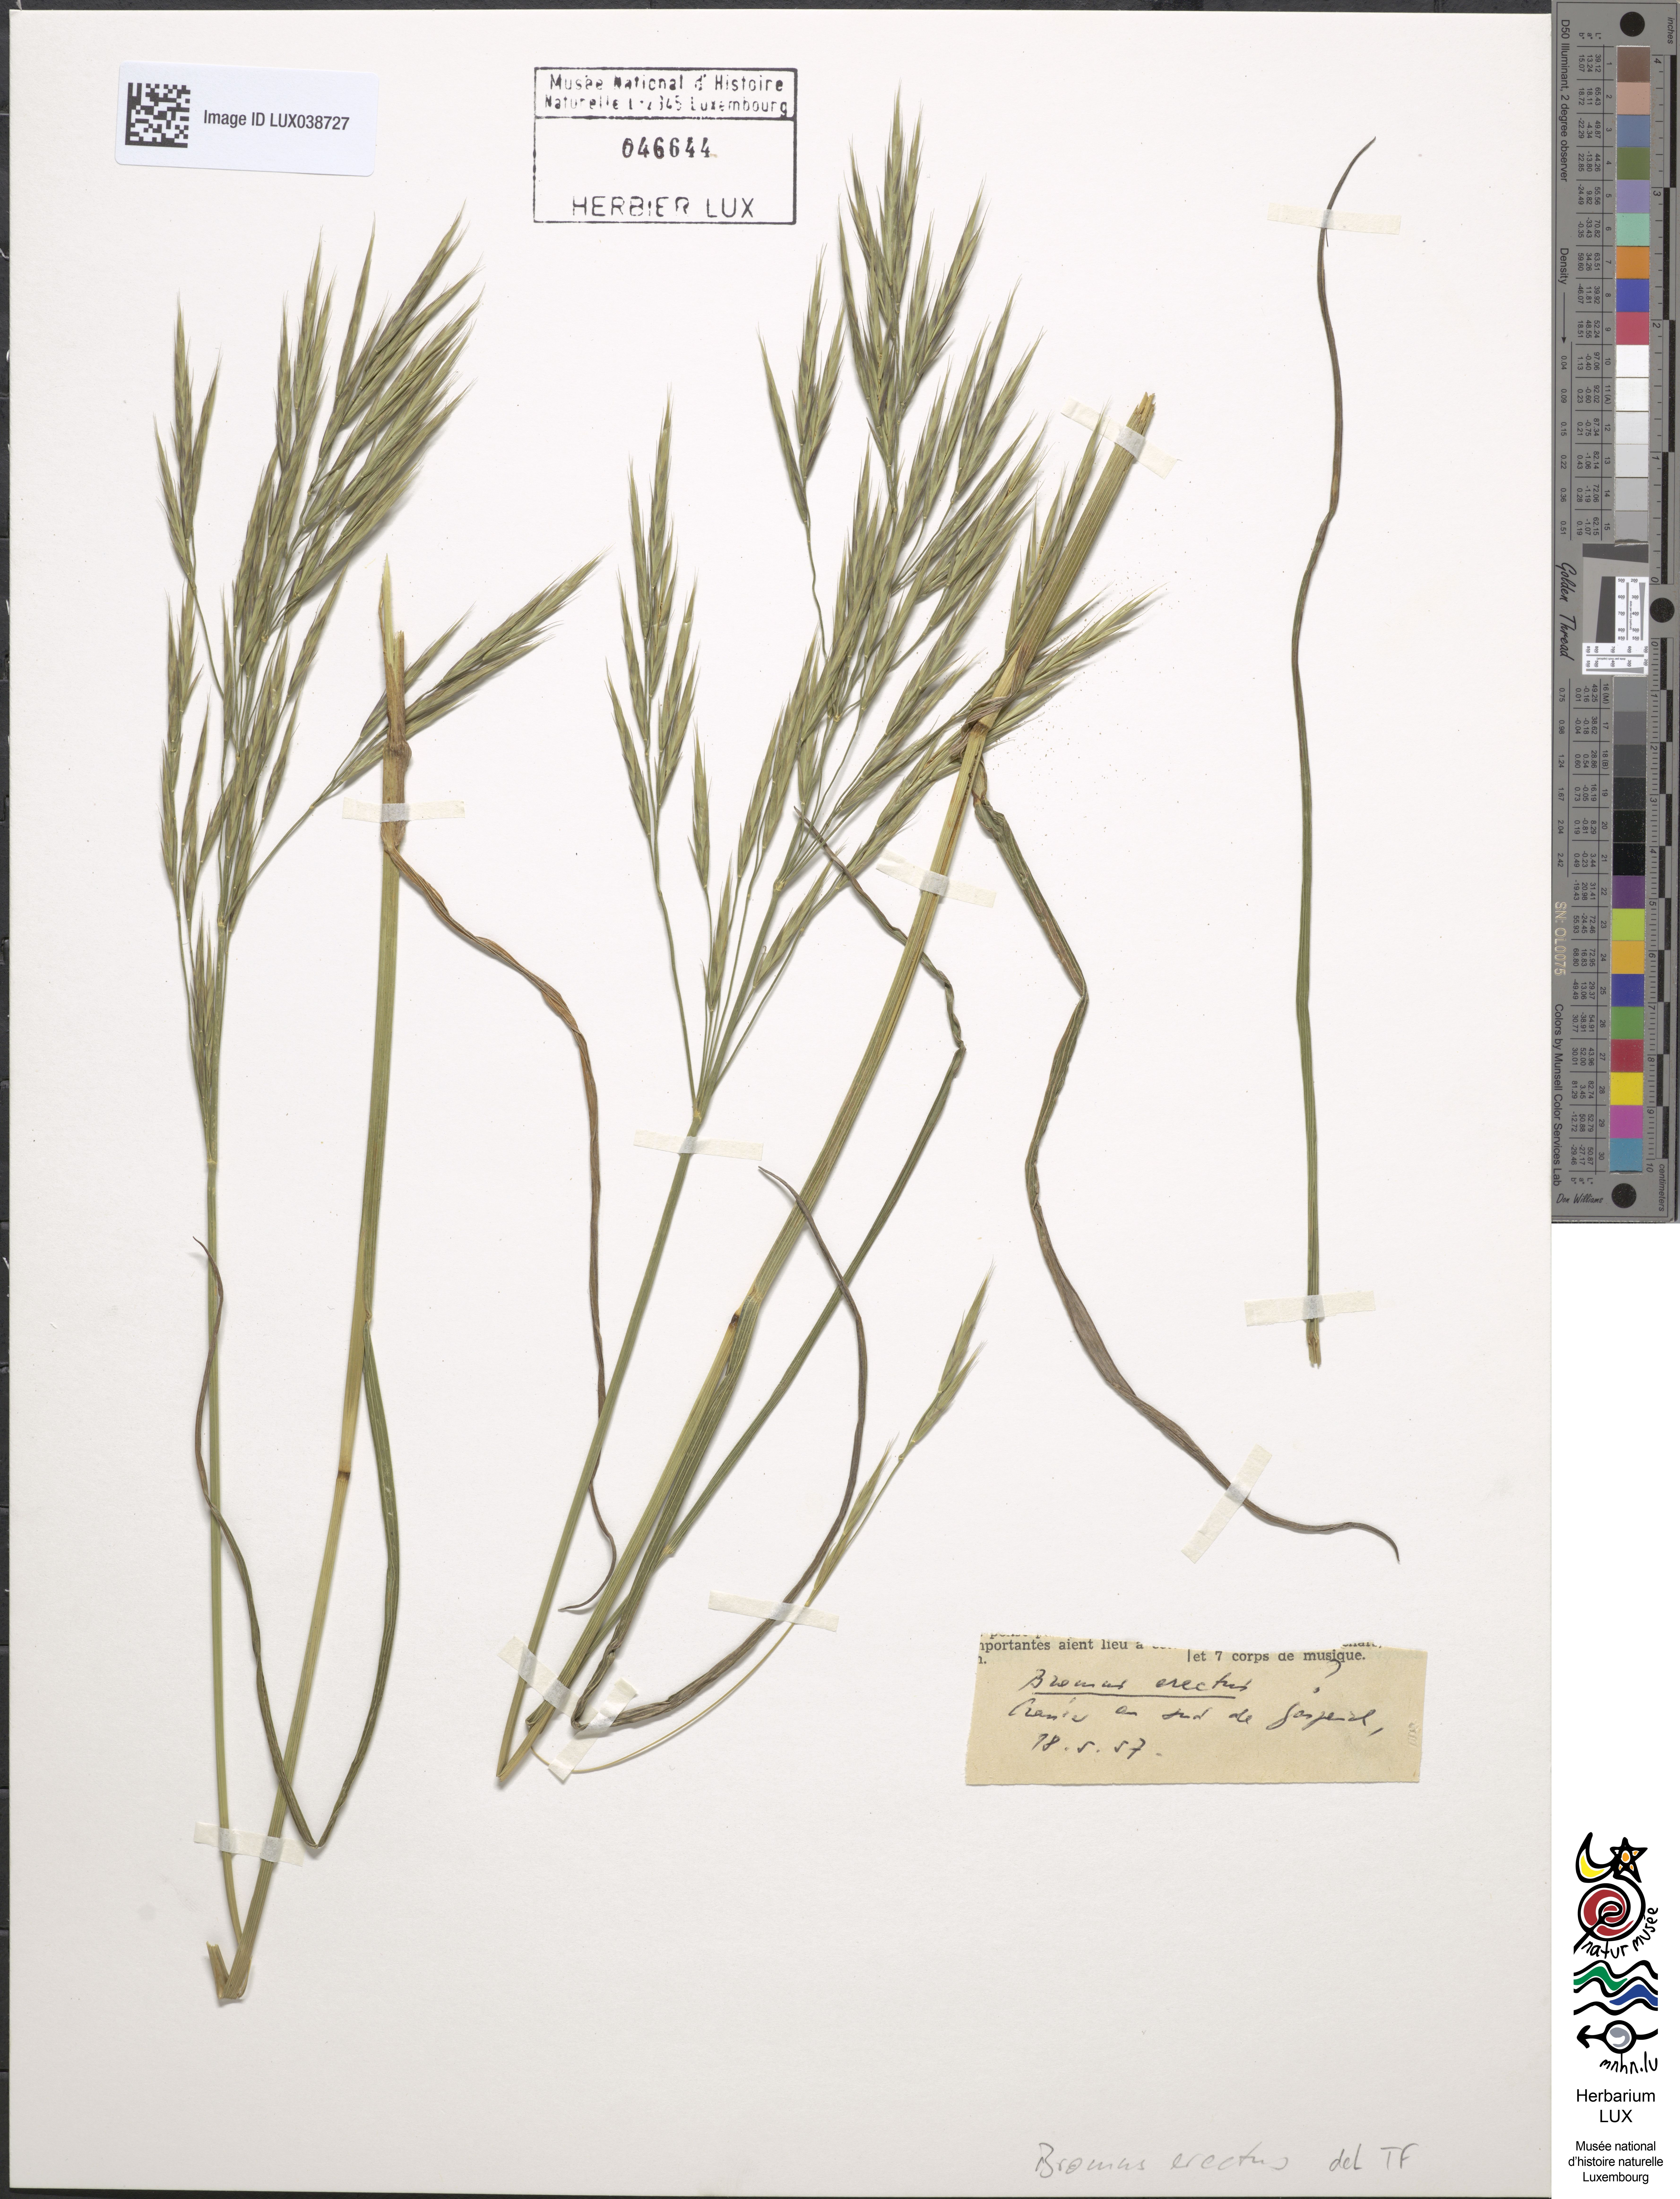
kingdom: Plantae
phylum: Tracheophyta
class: Liliopsida
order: Poales
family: Poaceae
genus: Bromus
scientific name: Bromus erectus
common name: Erect brome
